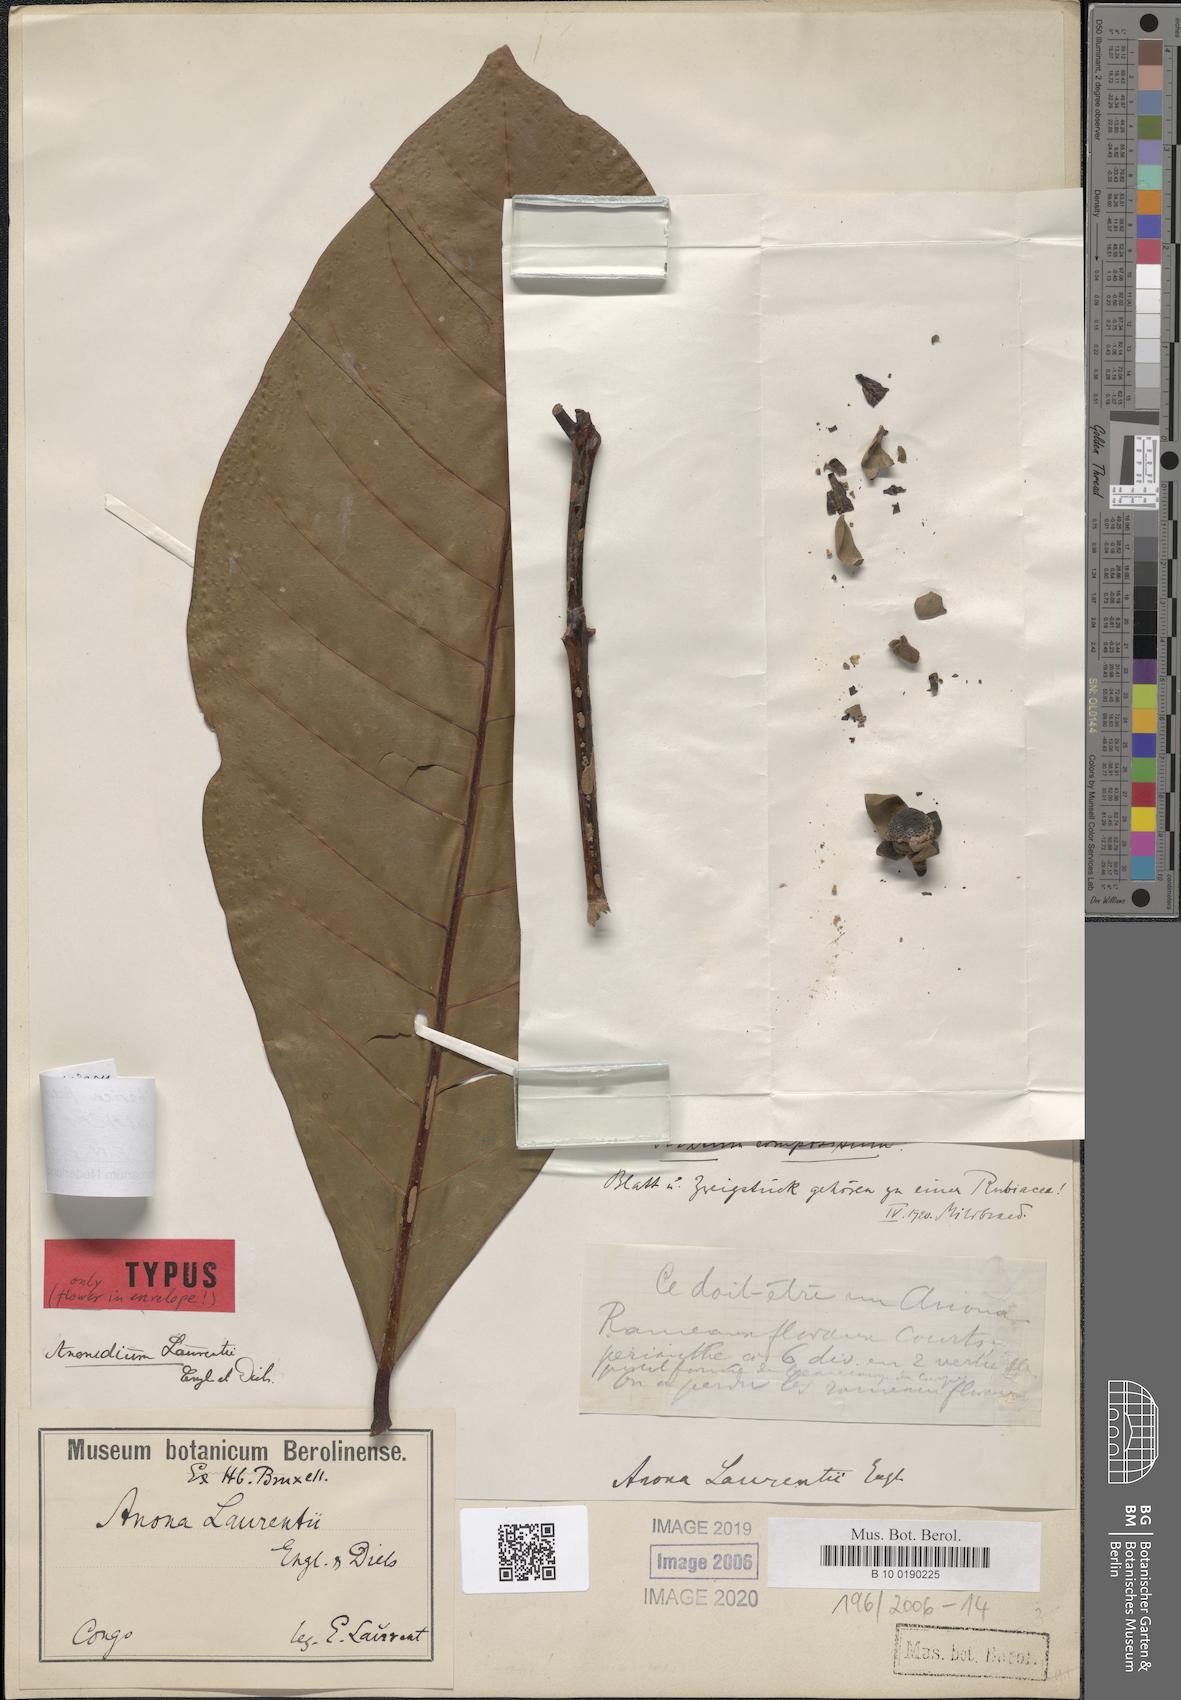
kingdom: Plantae
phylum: Tracheophyta
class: Magnoliopsida
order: Magnoliales
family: Annonaceae
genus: Anonidium
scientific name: Anonidium mannii
